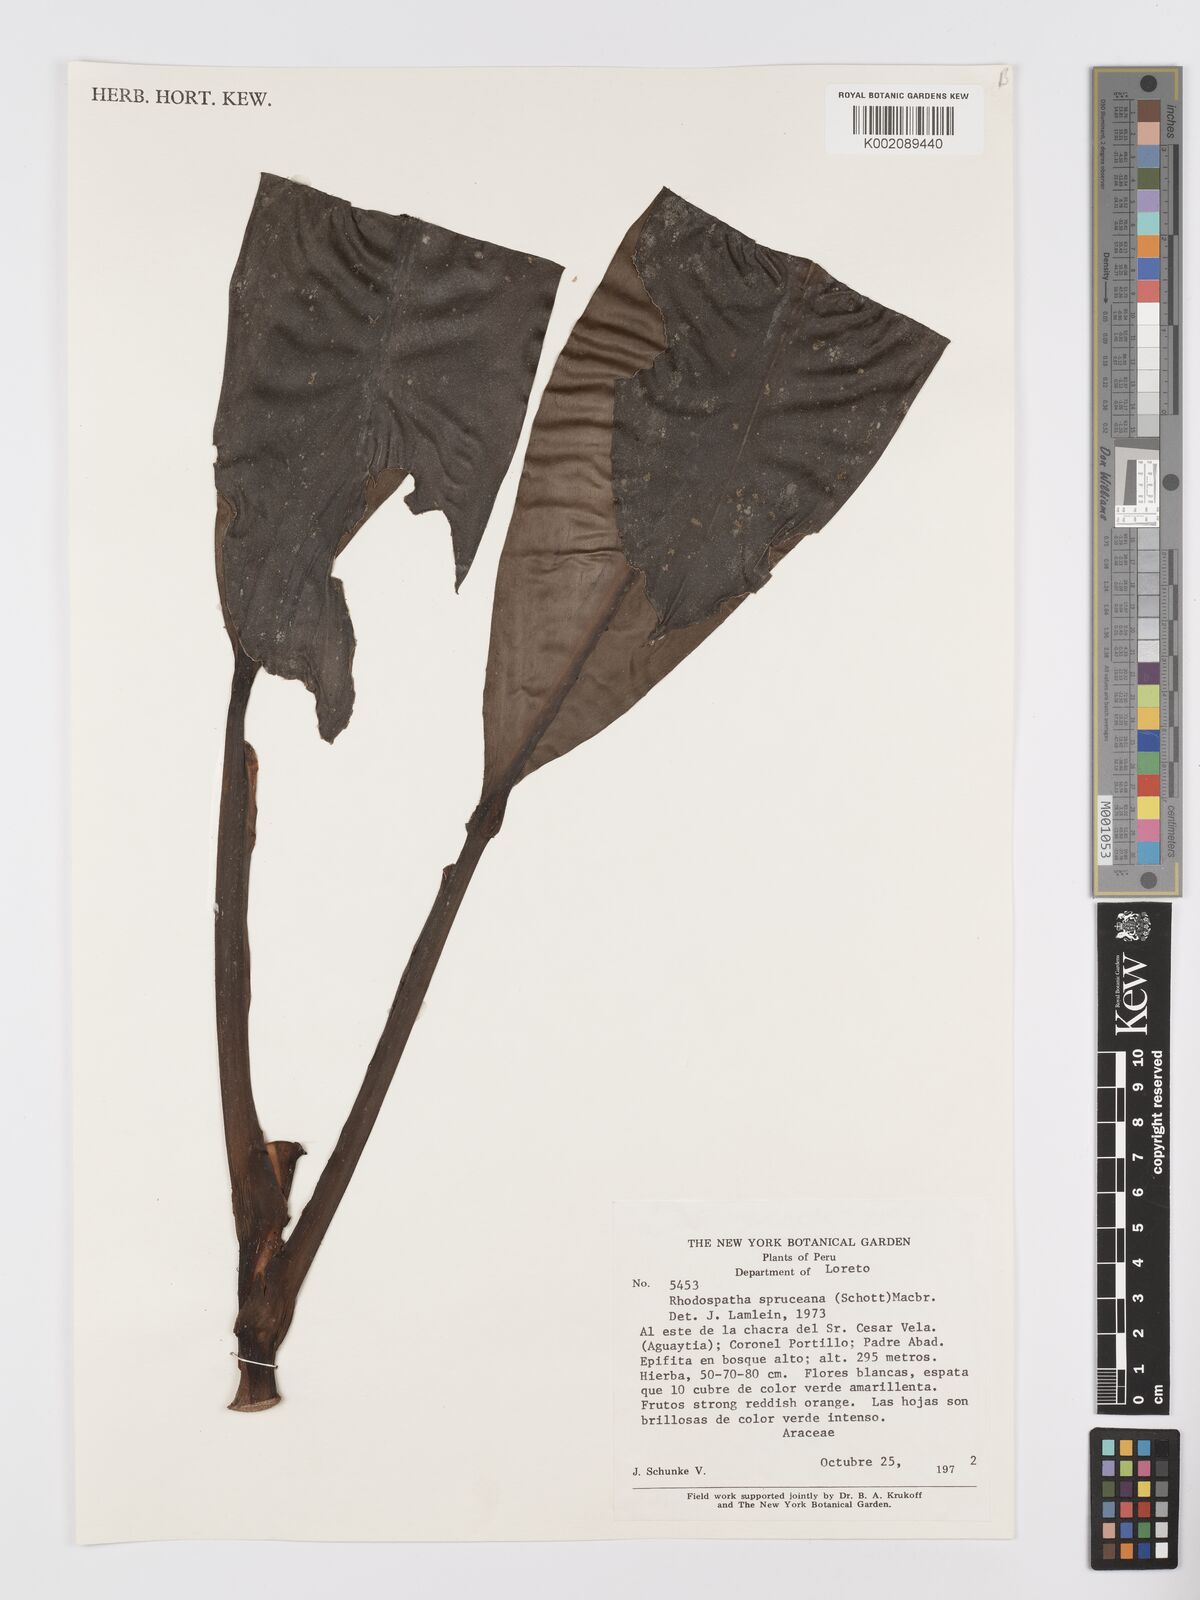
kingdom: Plantae
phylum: Tracheophyta
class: Liliopsida
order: Alismatales
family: Araceae
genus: Stenospermation
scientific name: Stenospermation spruceanum
